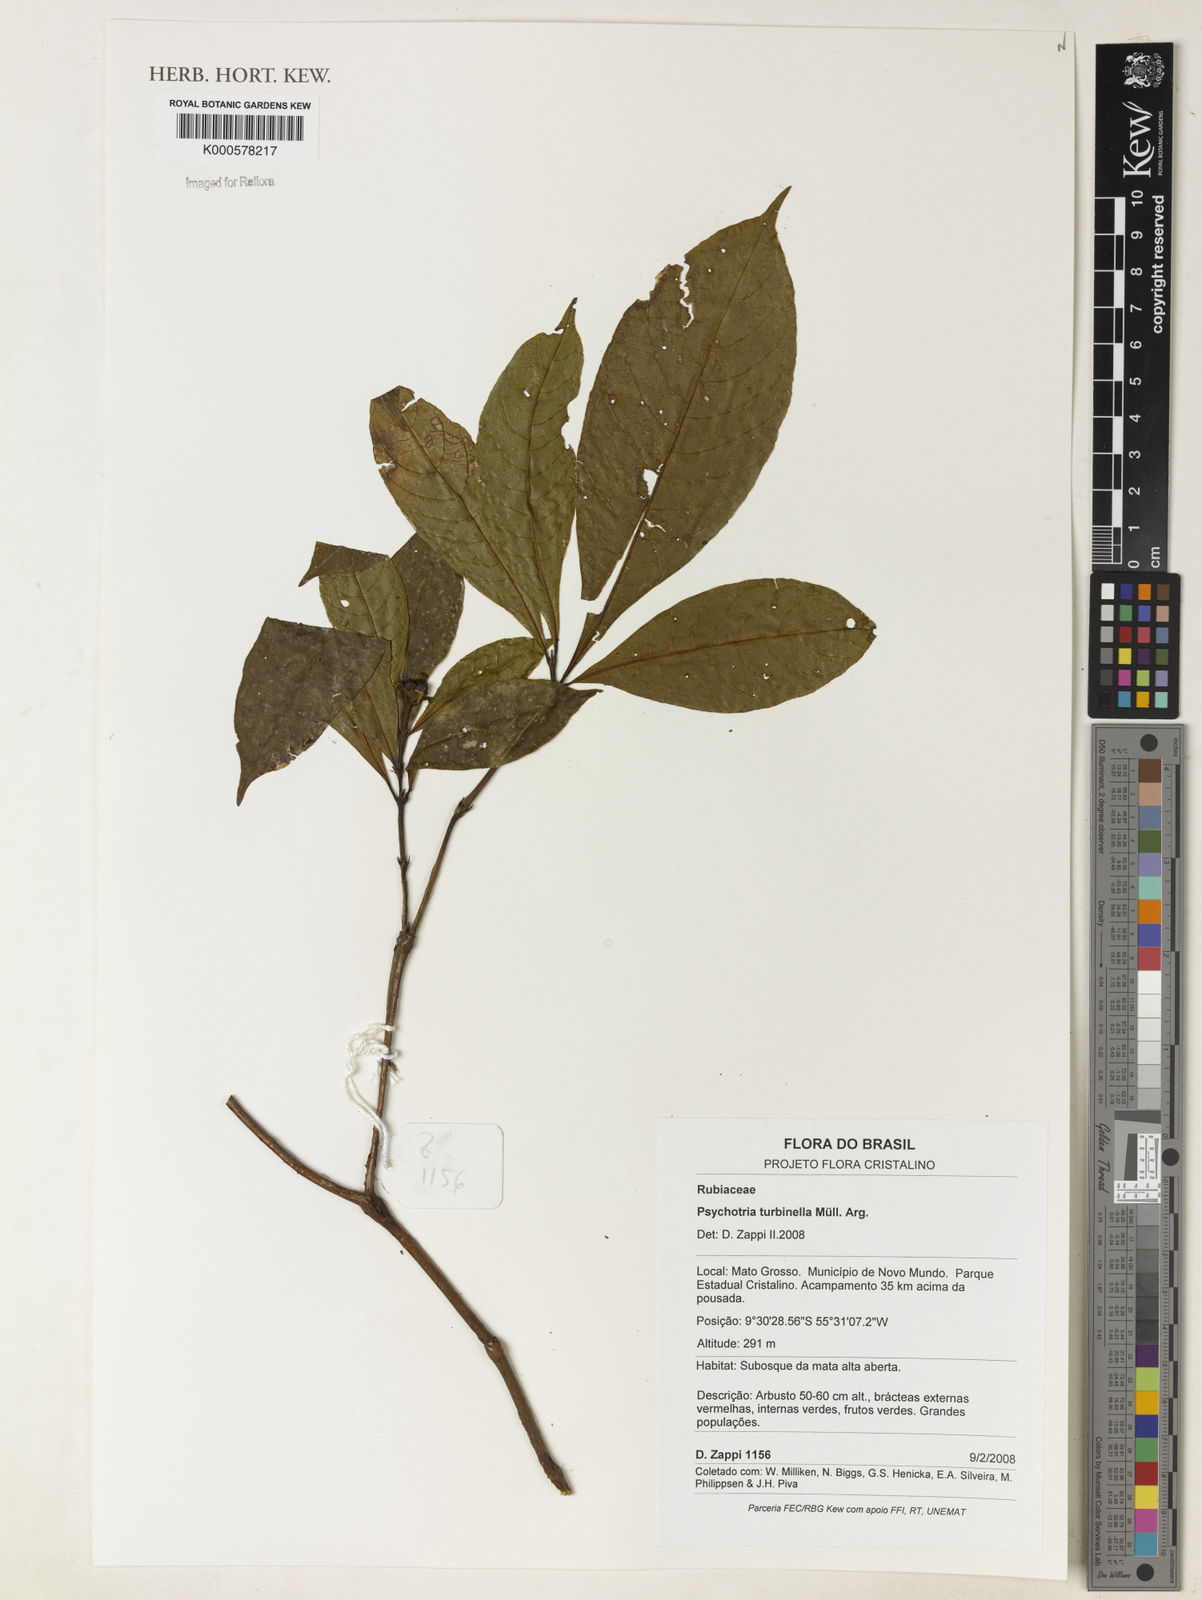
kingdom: Plantae
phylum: Tracheophyta
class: Magnoliopsida
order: Gentianales
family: Rubiaceae
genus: Psychotria
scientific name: Psychotria
